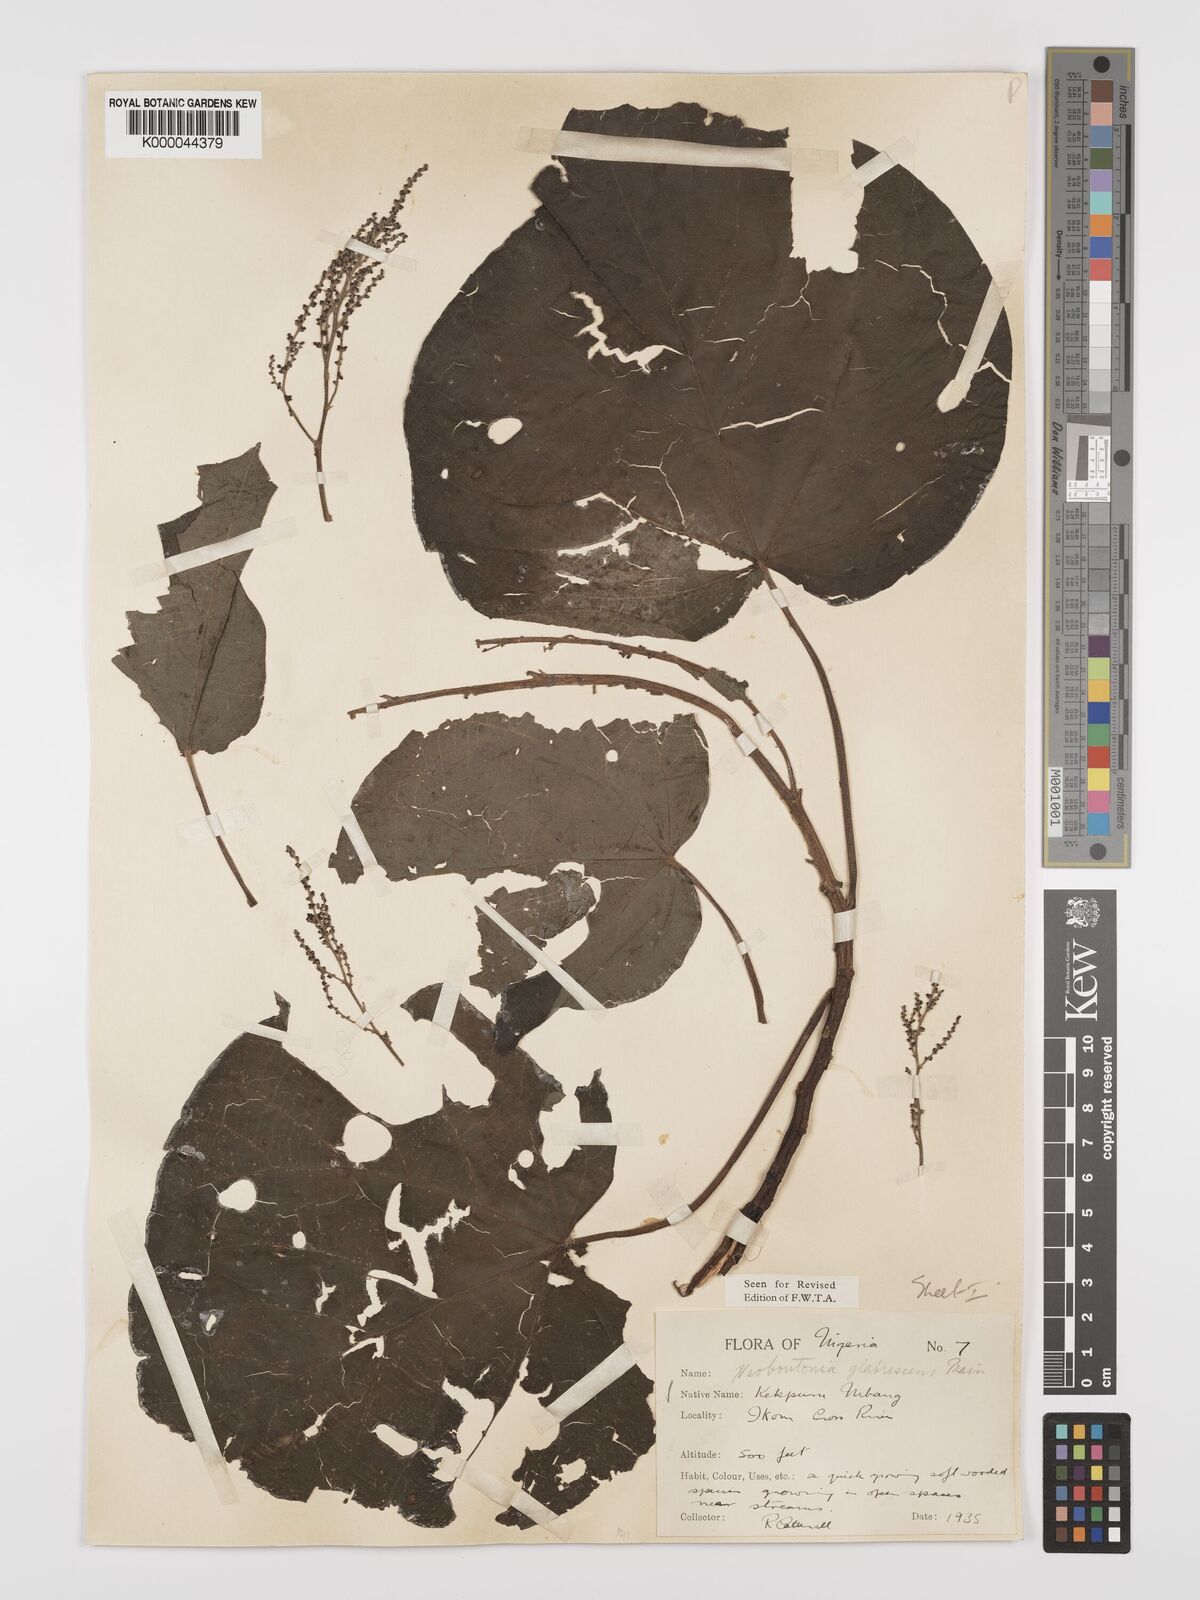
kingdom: Plantae
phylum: Tracheophyta
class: Magnoliopsida
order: Malpighiales
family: Euphorbiaceae
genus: Neoboutonia
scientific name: Neoboutonia mannii
